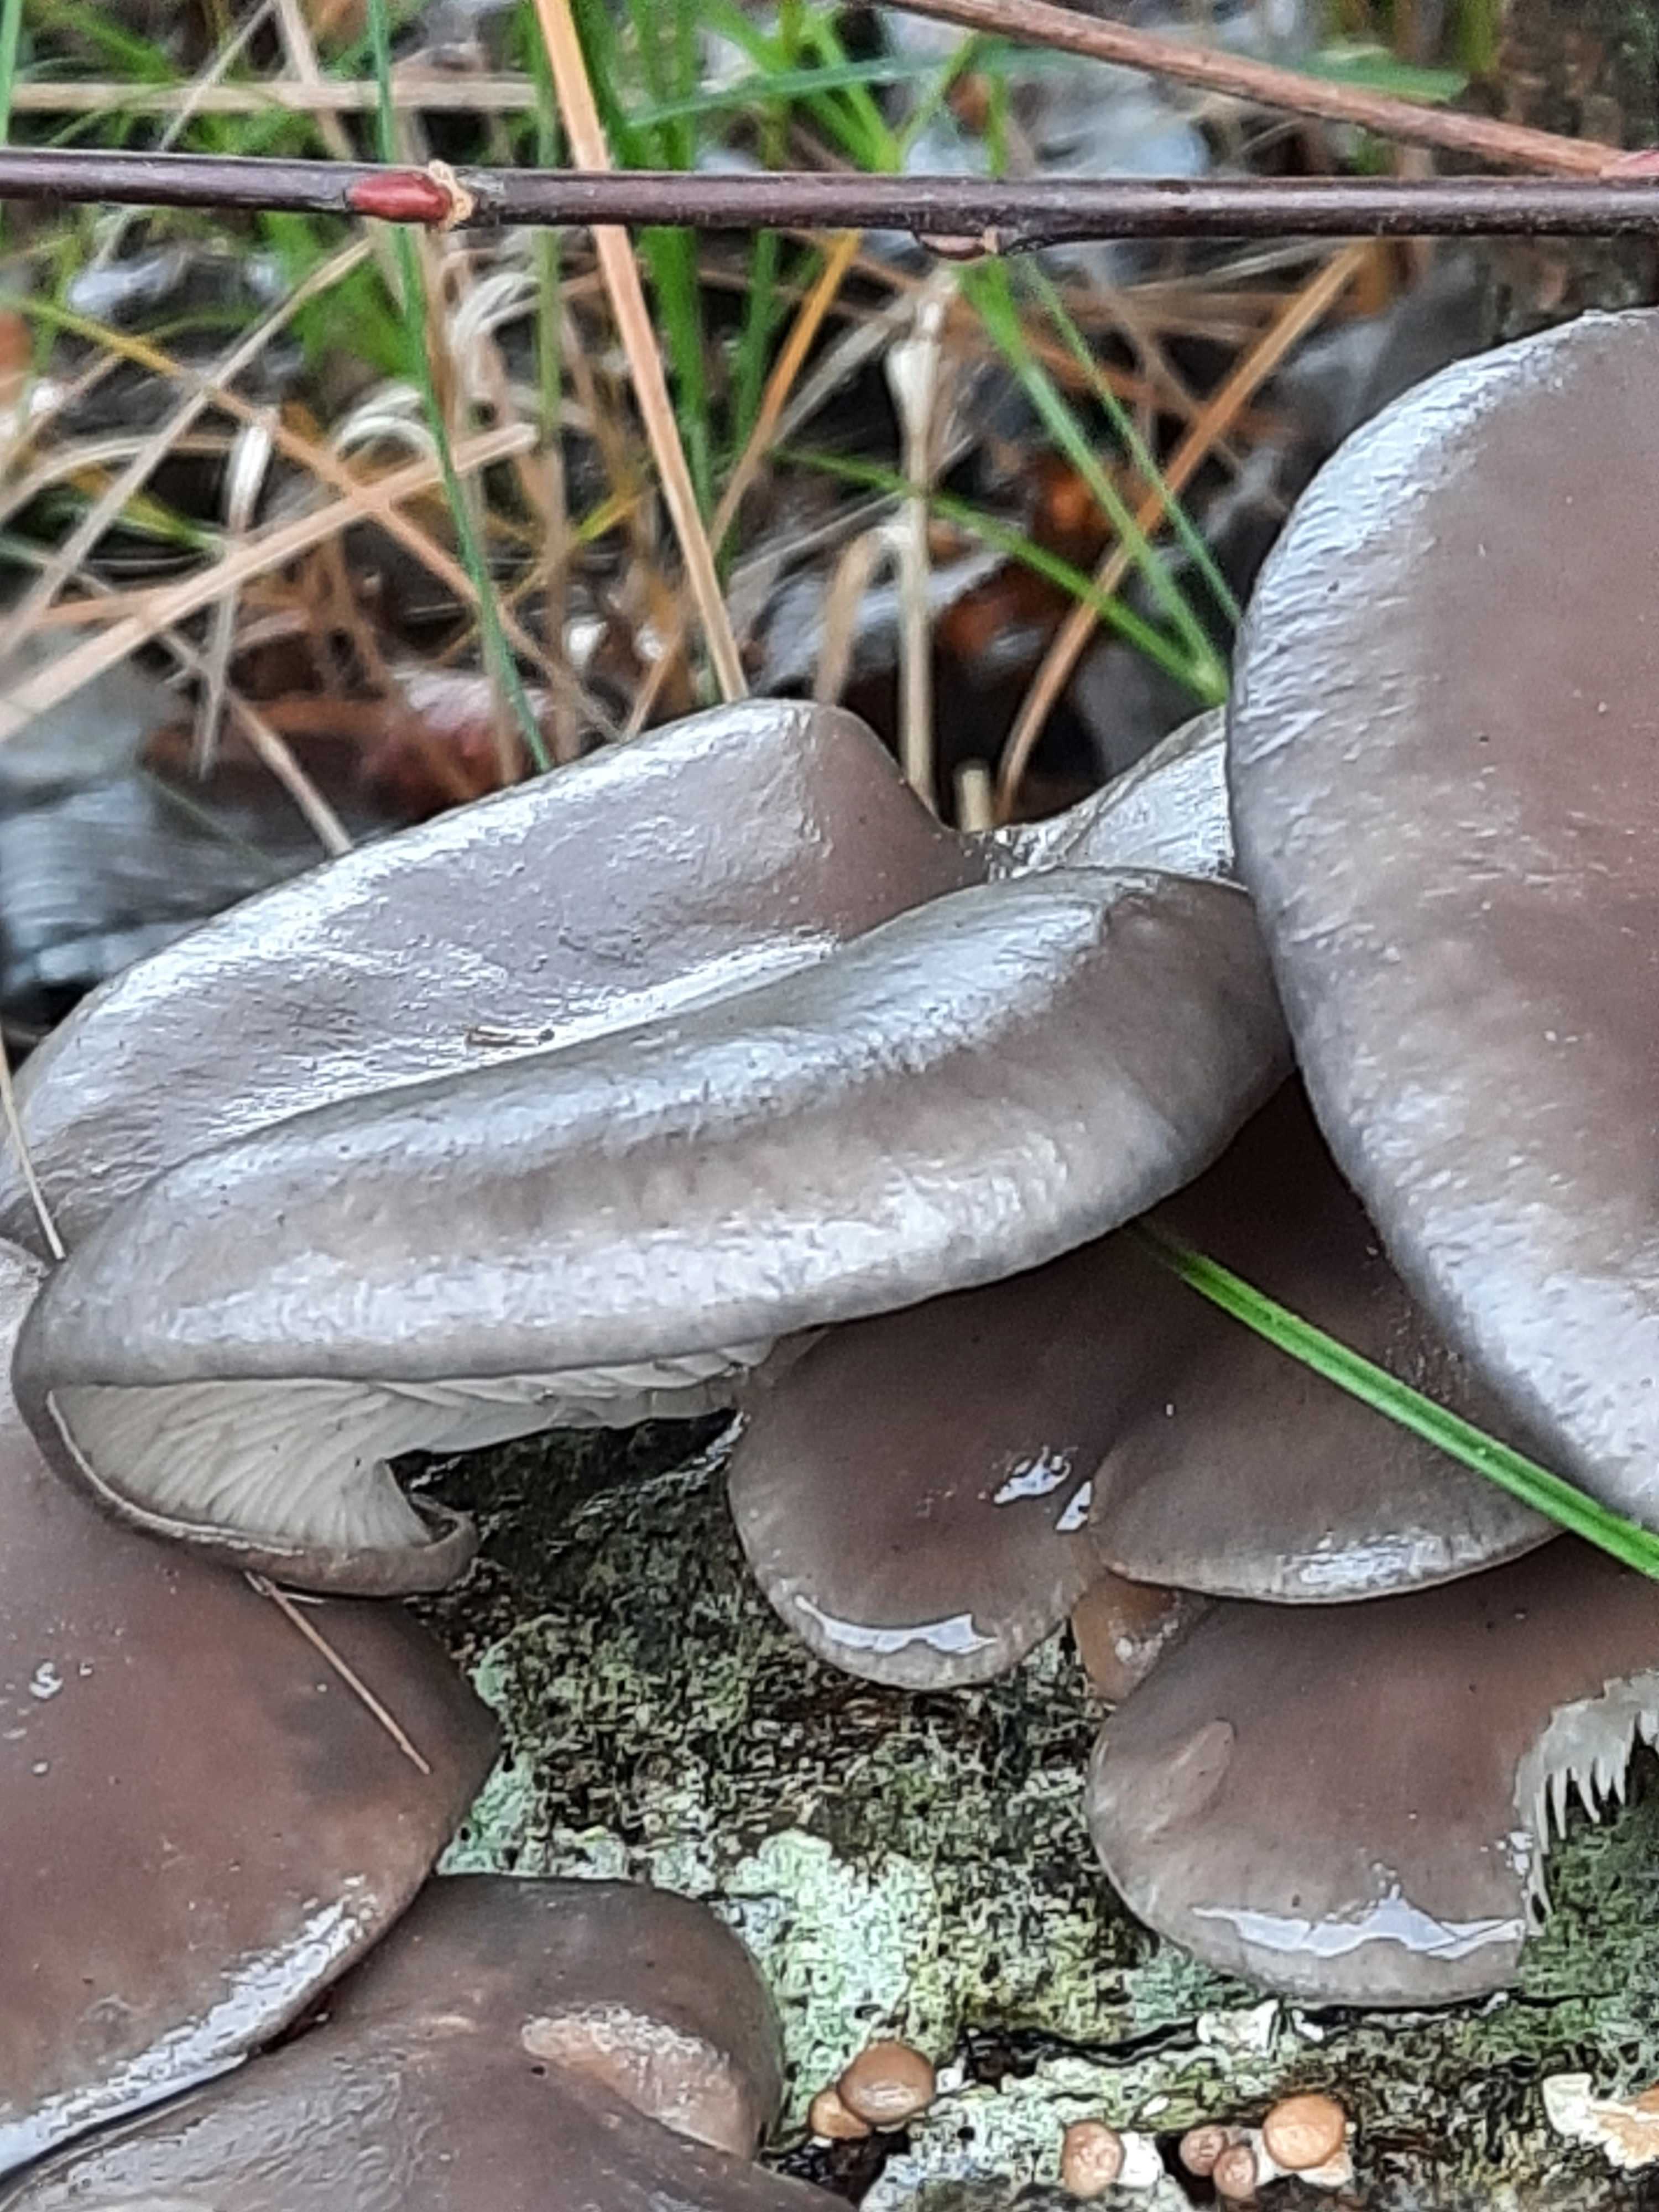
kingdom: Fungi
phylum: Basidiomycota
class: Agaricomycetes
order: Agaricales
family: Pleurotaceae
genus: Pleurotus
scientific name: Pleurotus ostreatus
